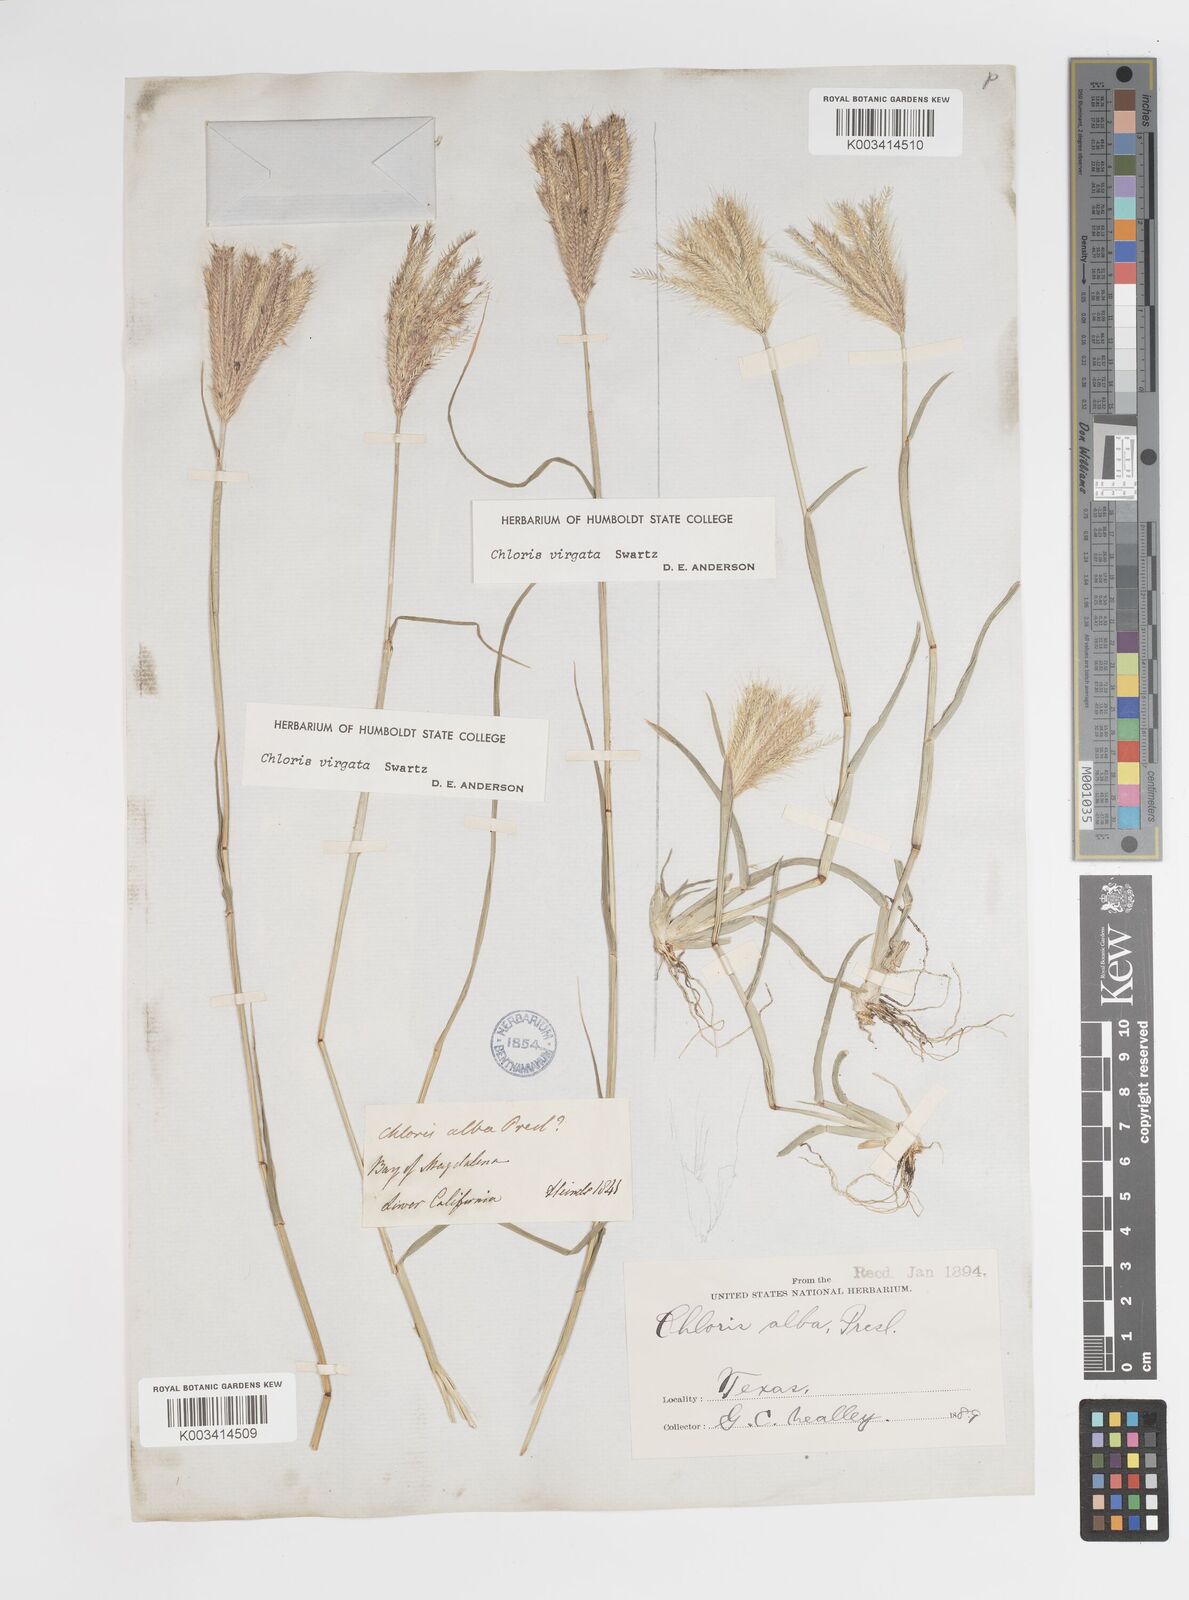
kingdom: Plantae
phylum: Tracheophyta
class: Liliopsida
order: Poales
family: Poaceae
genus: Chloris
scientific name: Chloris virgata
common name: Feathery rhodes-grass
